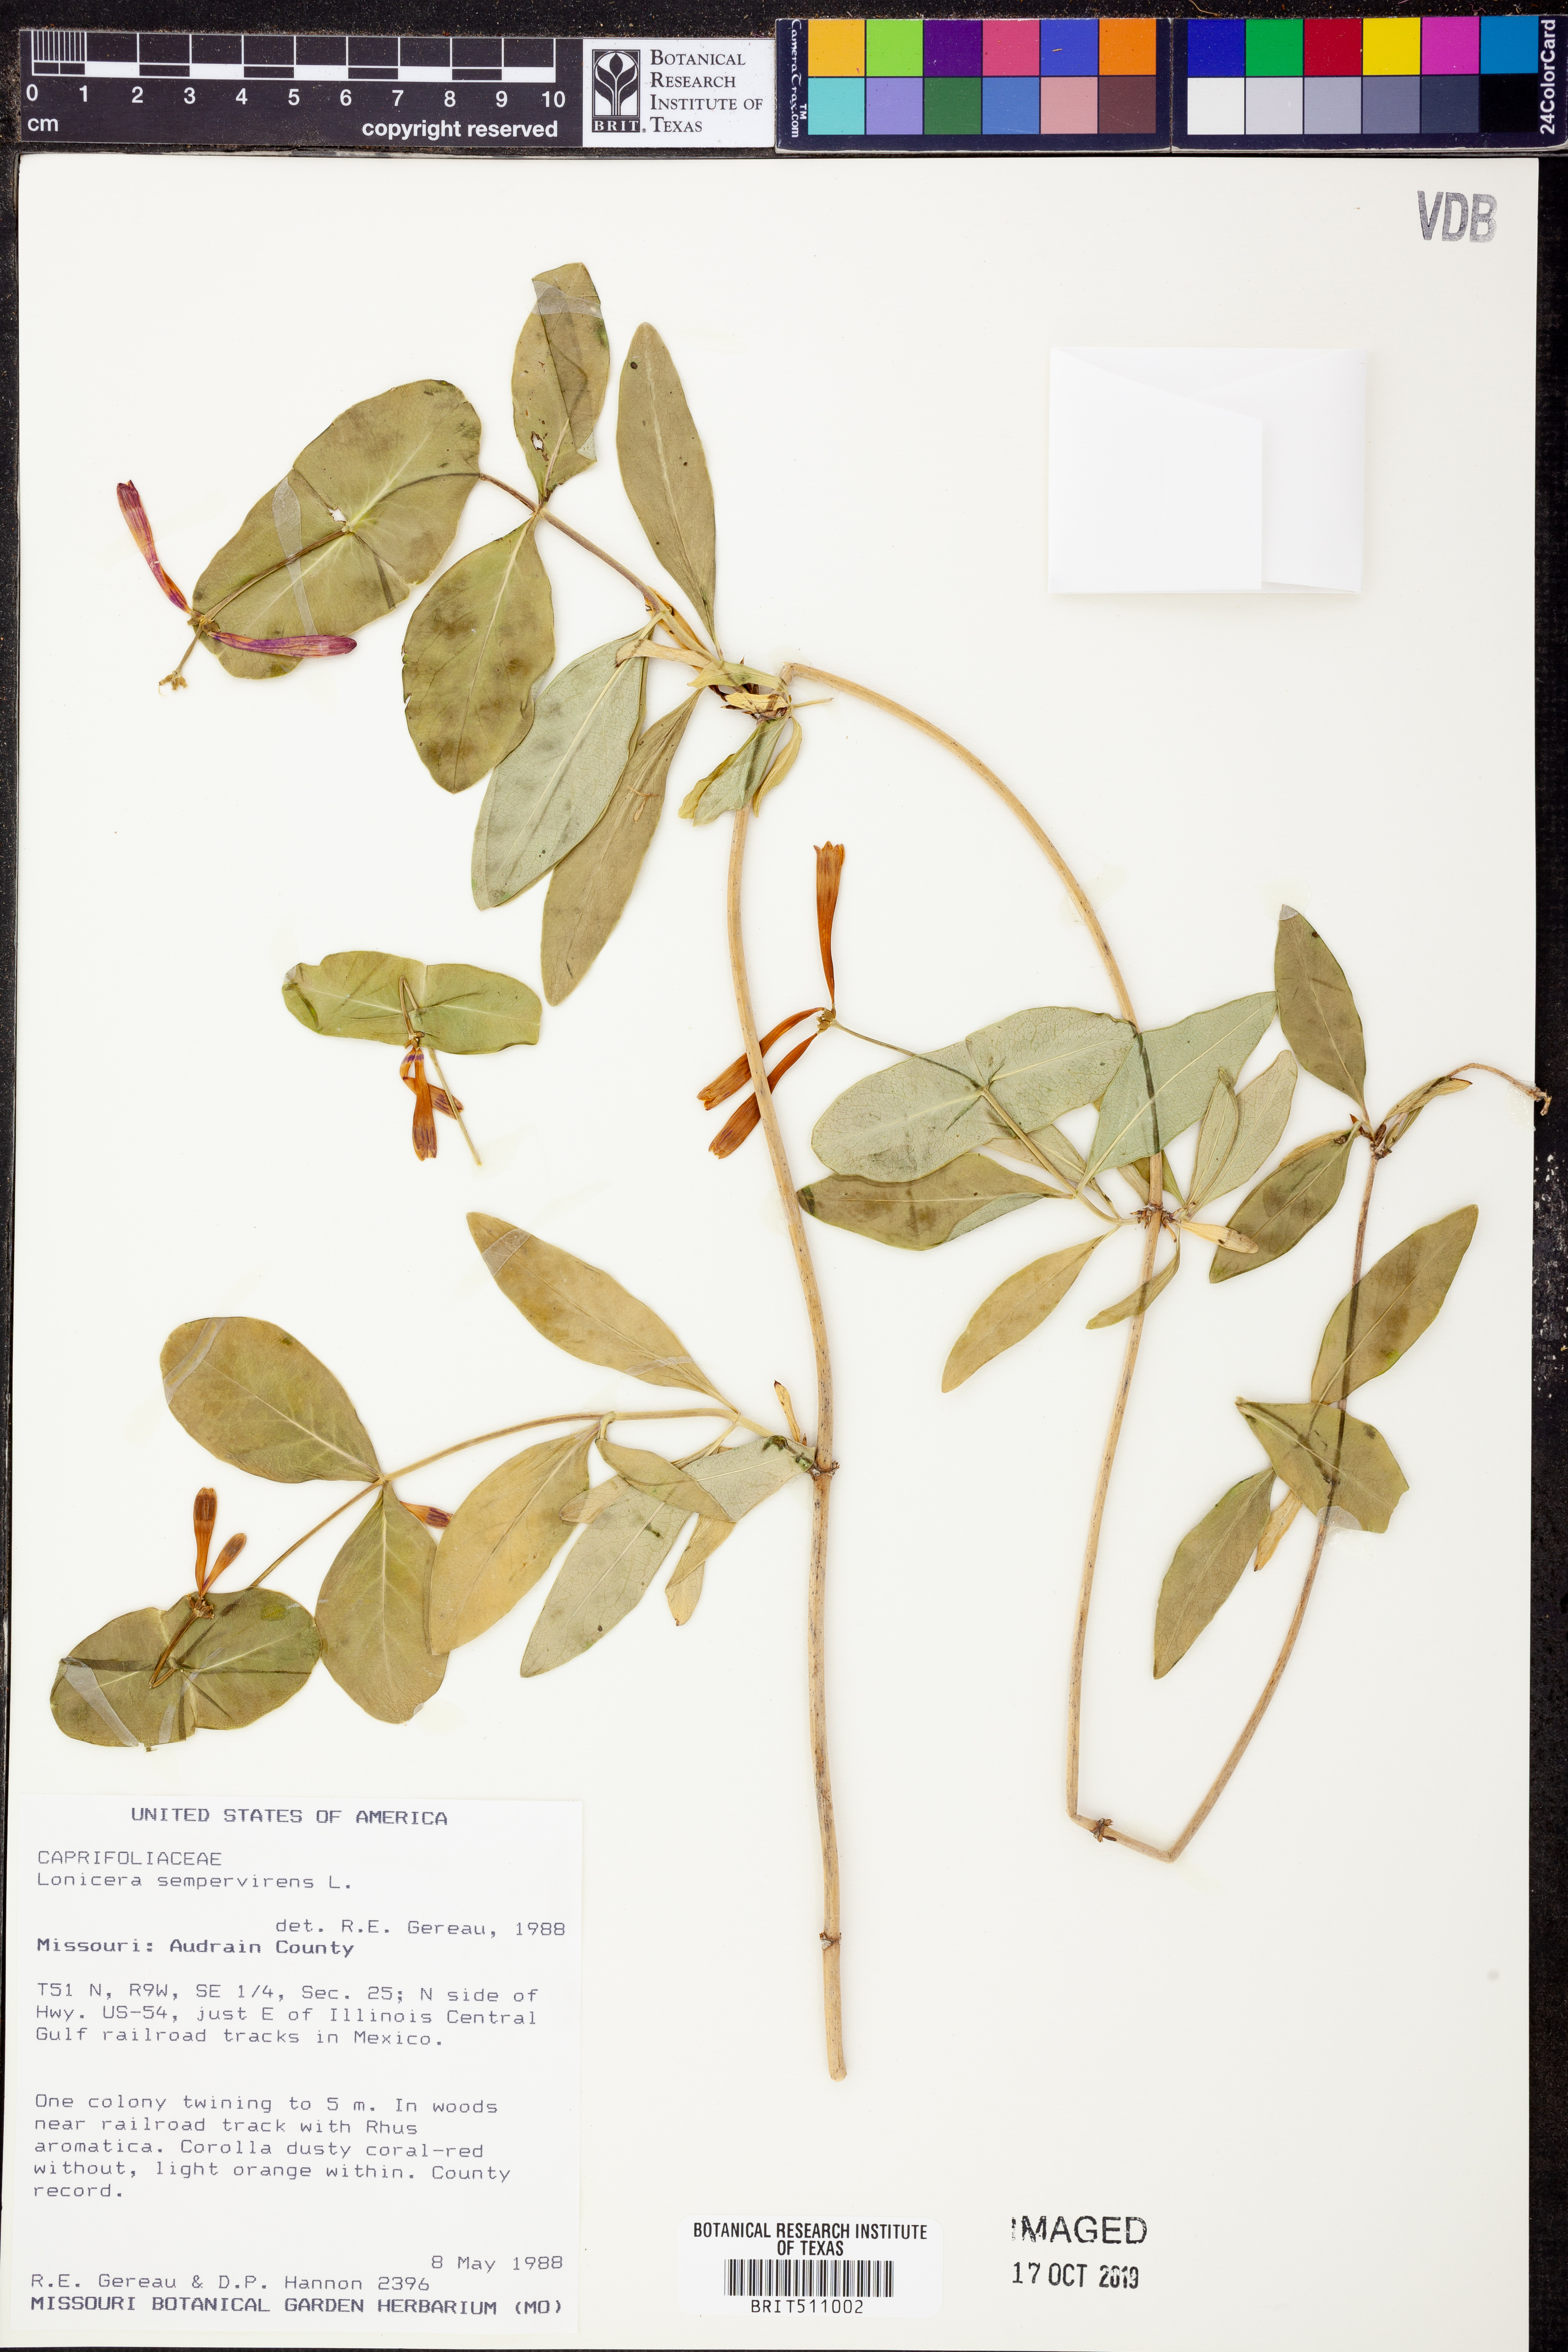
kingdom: Plantae
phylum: Tracheophyta
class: Magnoliopsida
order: Dipsacales
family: Caprifoliaceae
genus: Lonicera
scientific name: Lonicera sempervirens
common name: Coral honeysuckle
